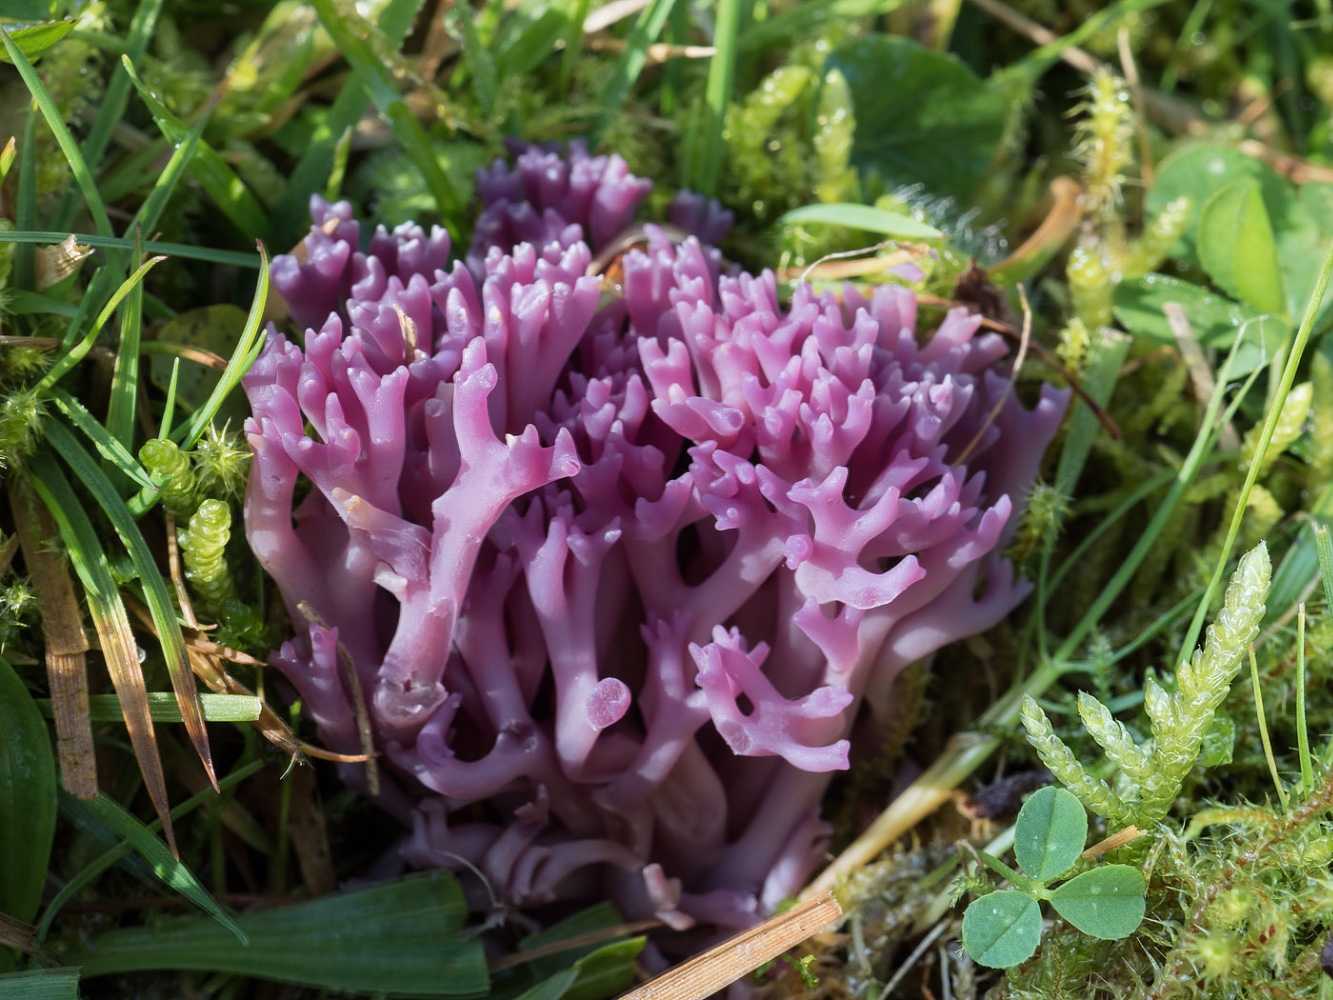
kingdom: Fungi
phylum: Basidiomycota
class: Agaricomycetes
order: Agaricales
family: Clavariaceae
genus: Clavaria
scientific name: Clavaria zollingeri
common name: purpur-køllesvamp
